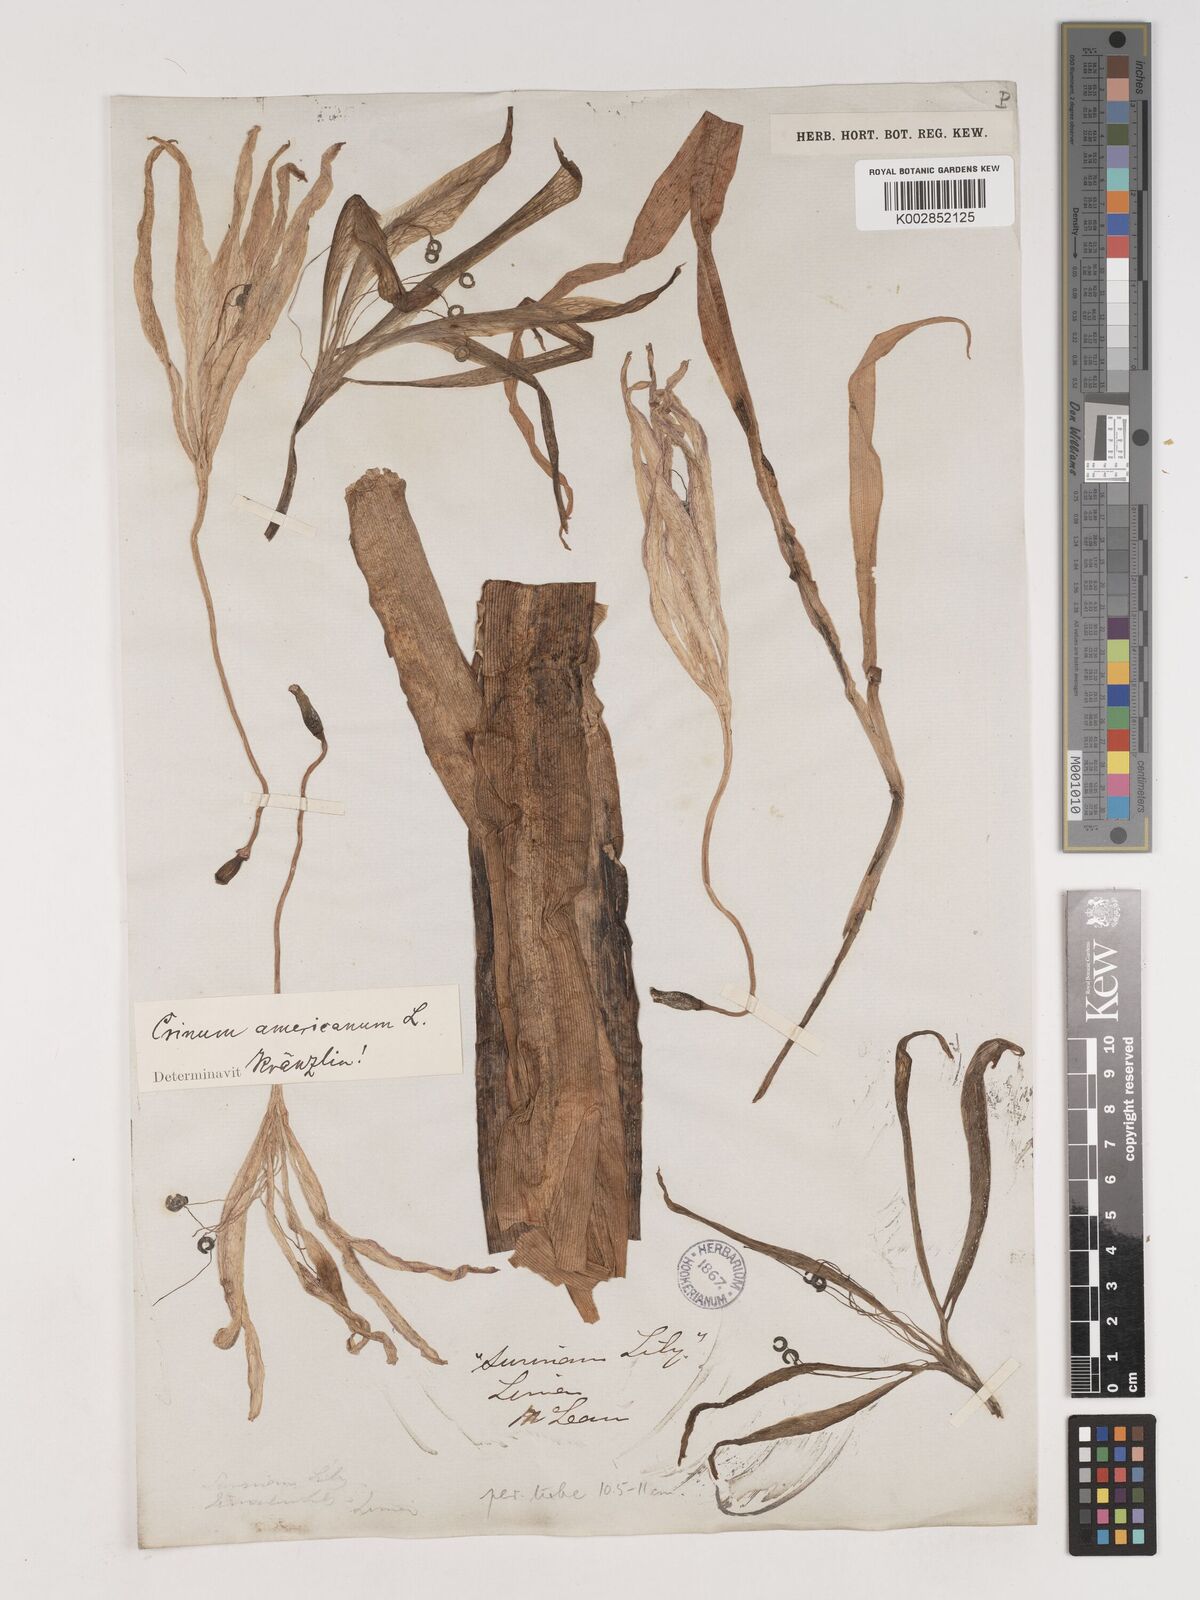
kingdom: Plantae
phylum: Tracheophyta
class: Liliopsida
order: Asparagales
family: Amaryllidaceae
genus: Crinum
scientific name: Crinum americanum
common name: Florida swamp-lily
